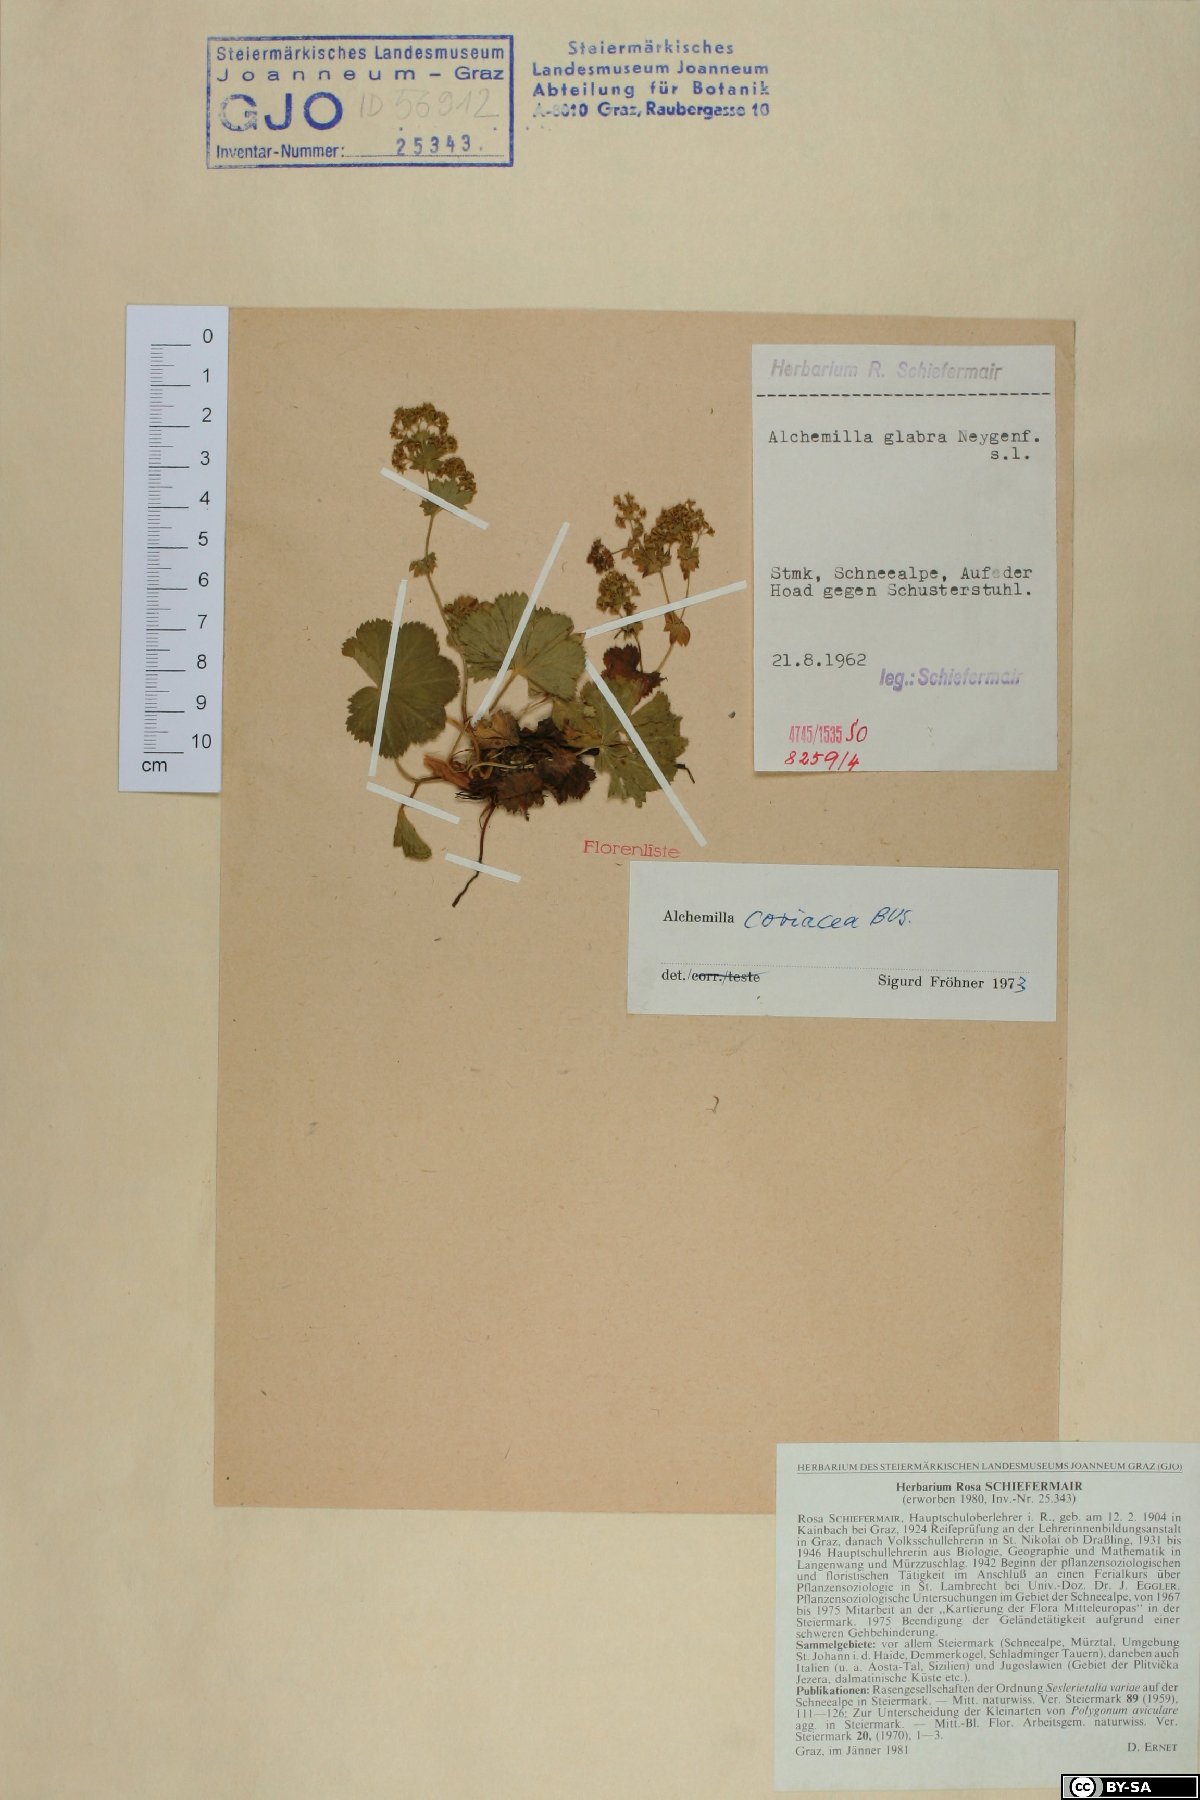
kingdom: Plantae
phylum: Tracheophyta
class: Magnoliopsida
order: Rosales
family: Rosaceae
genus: Alchemilla
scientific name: Alchemilla coriacea
